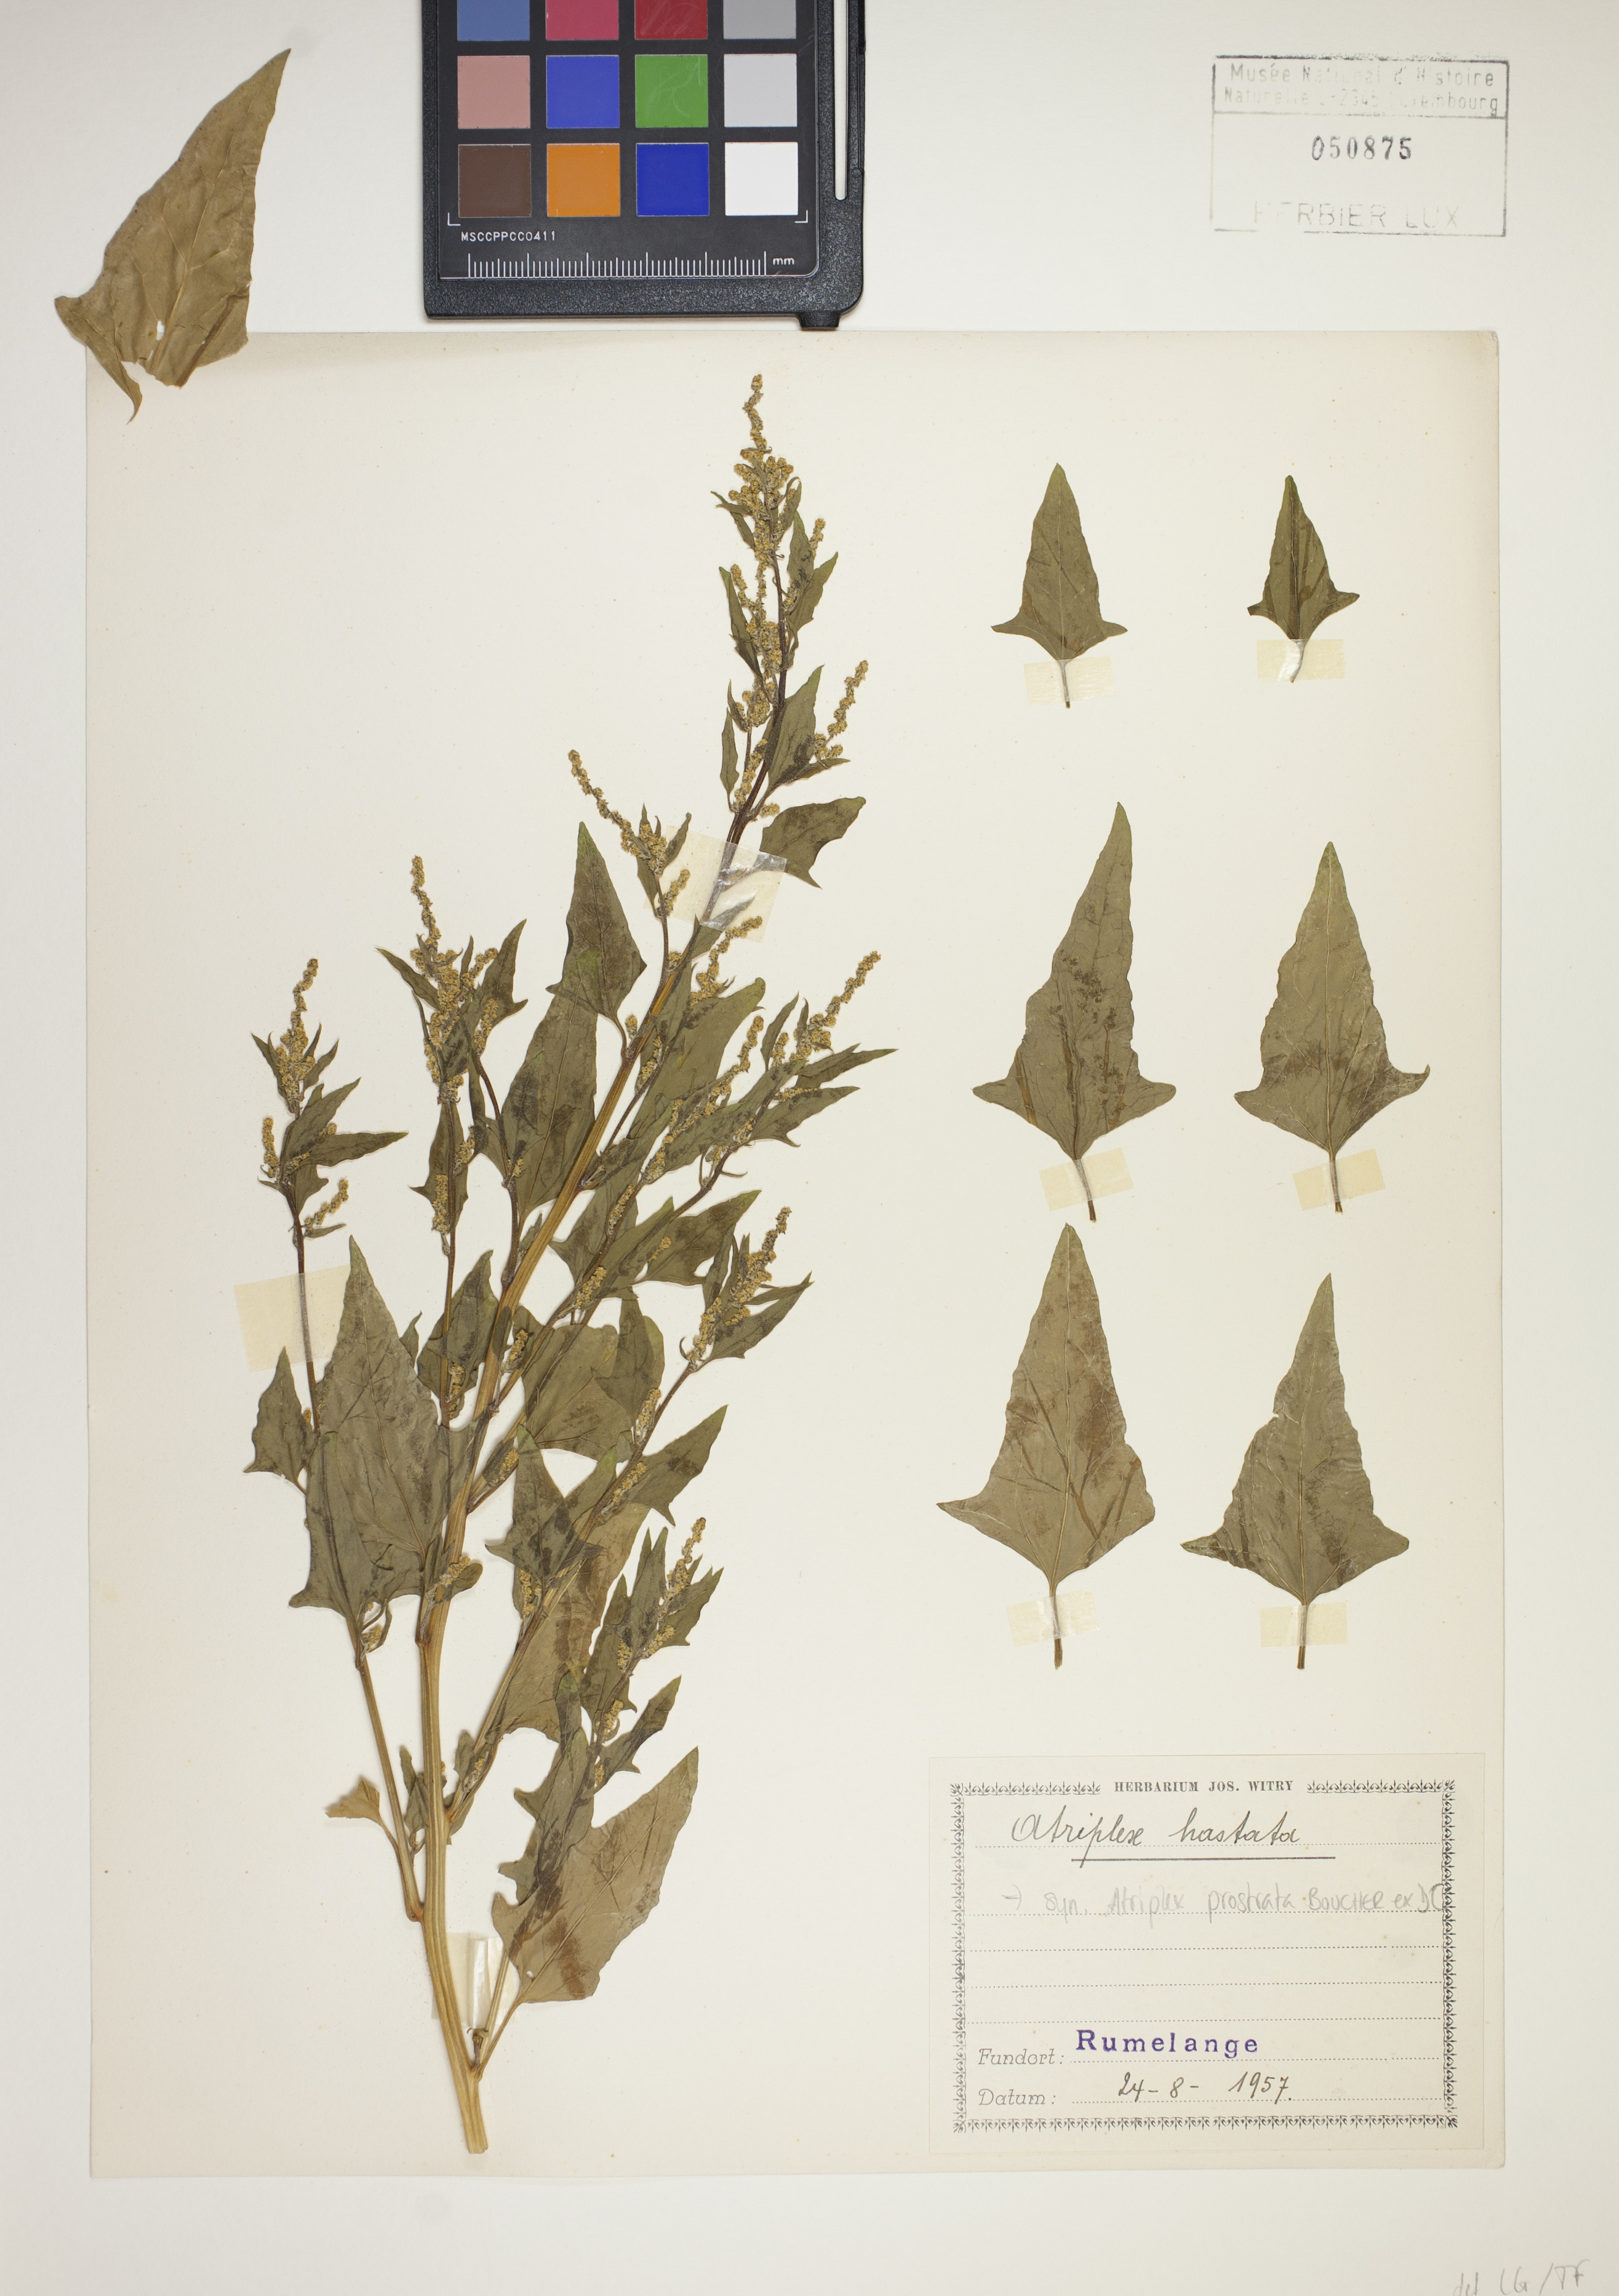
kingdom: Plantae
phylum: Tracheophyta
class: Magnoliopsida
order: Caryophyllales
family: Amaranthaceae
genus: Atriplex
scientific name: Atriplex prostrata
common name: Spear-leaved orache
